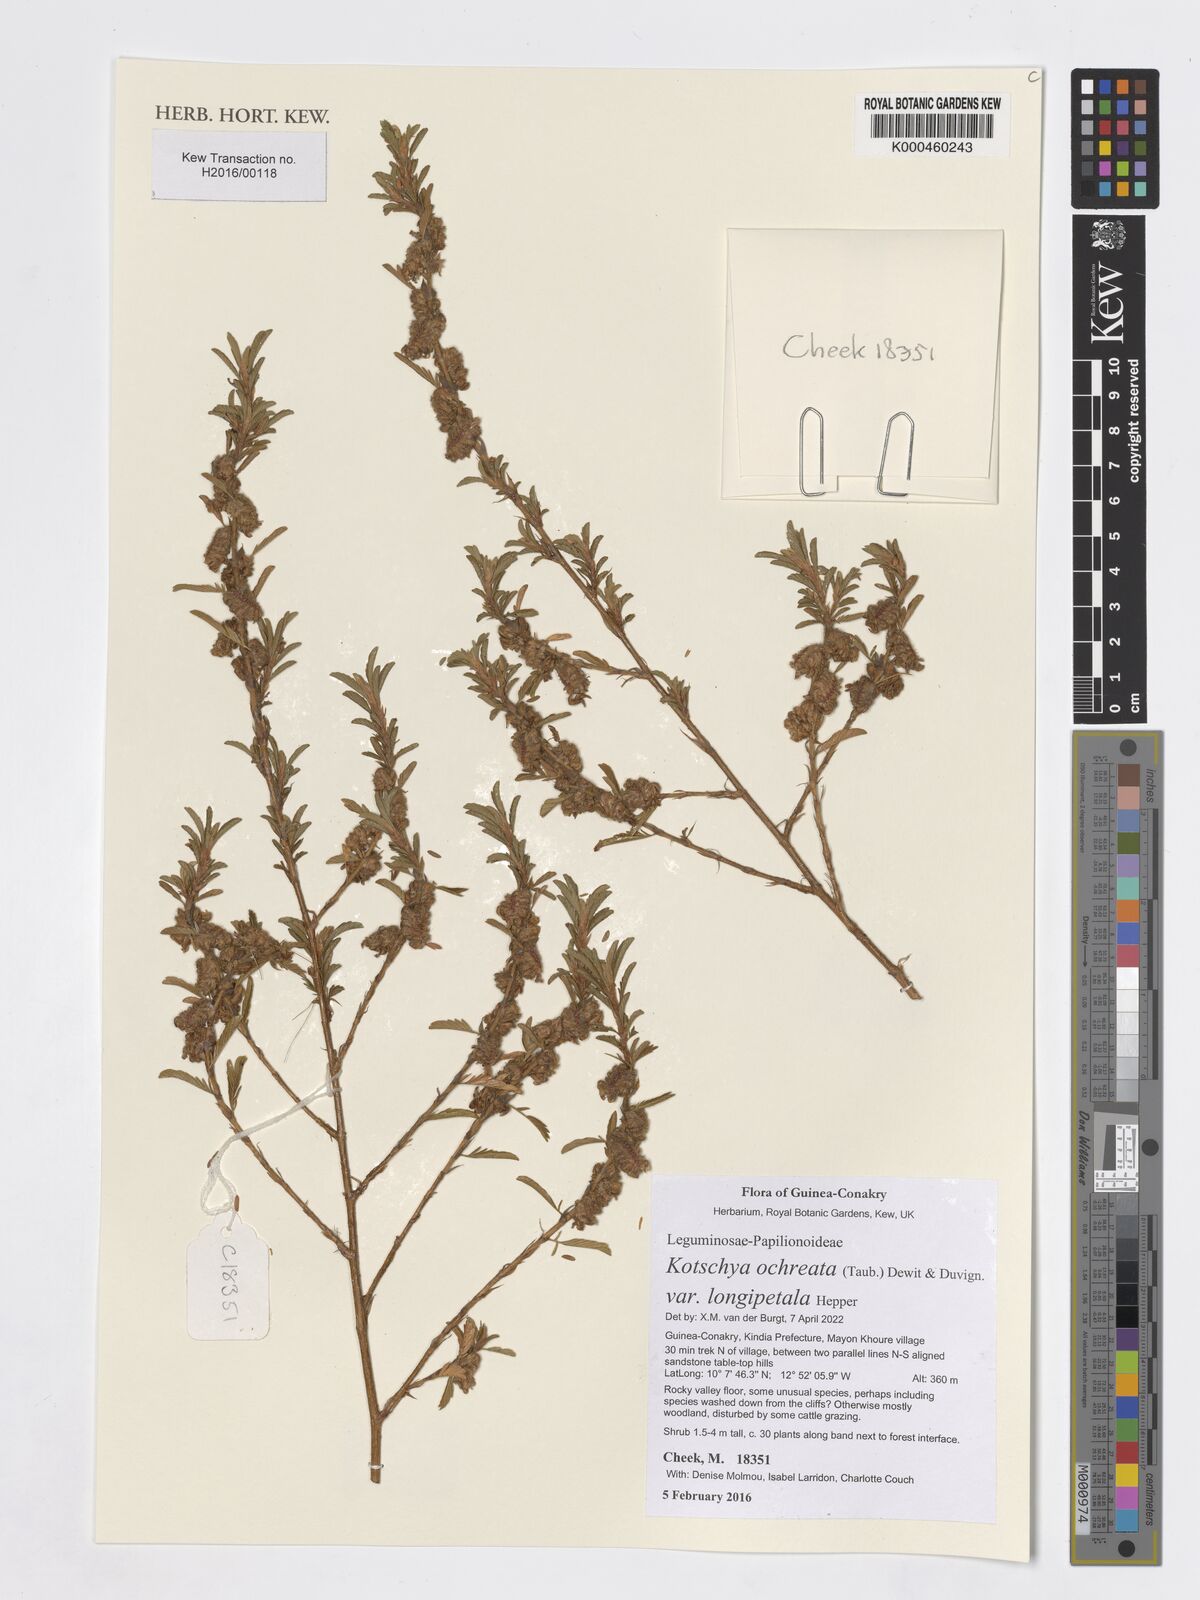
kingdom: Plantae
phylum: Tracheophyta
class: Magnoliopsida
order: Fabales
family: Fabaceae
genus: Kotschya
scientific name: Kotschya ochreata
